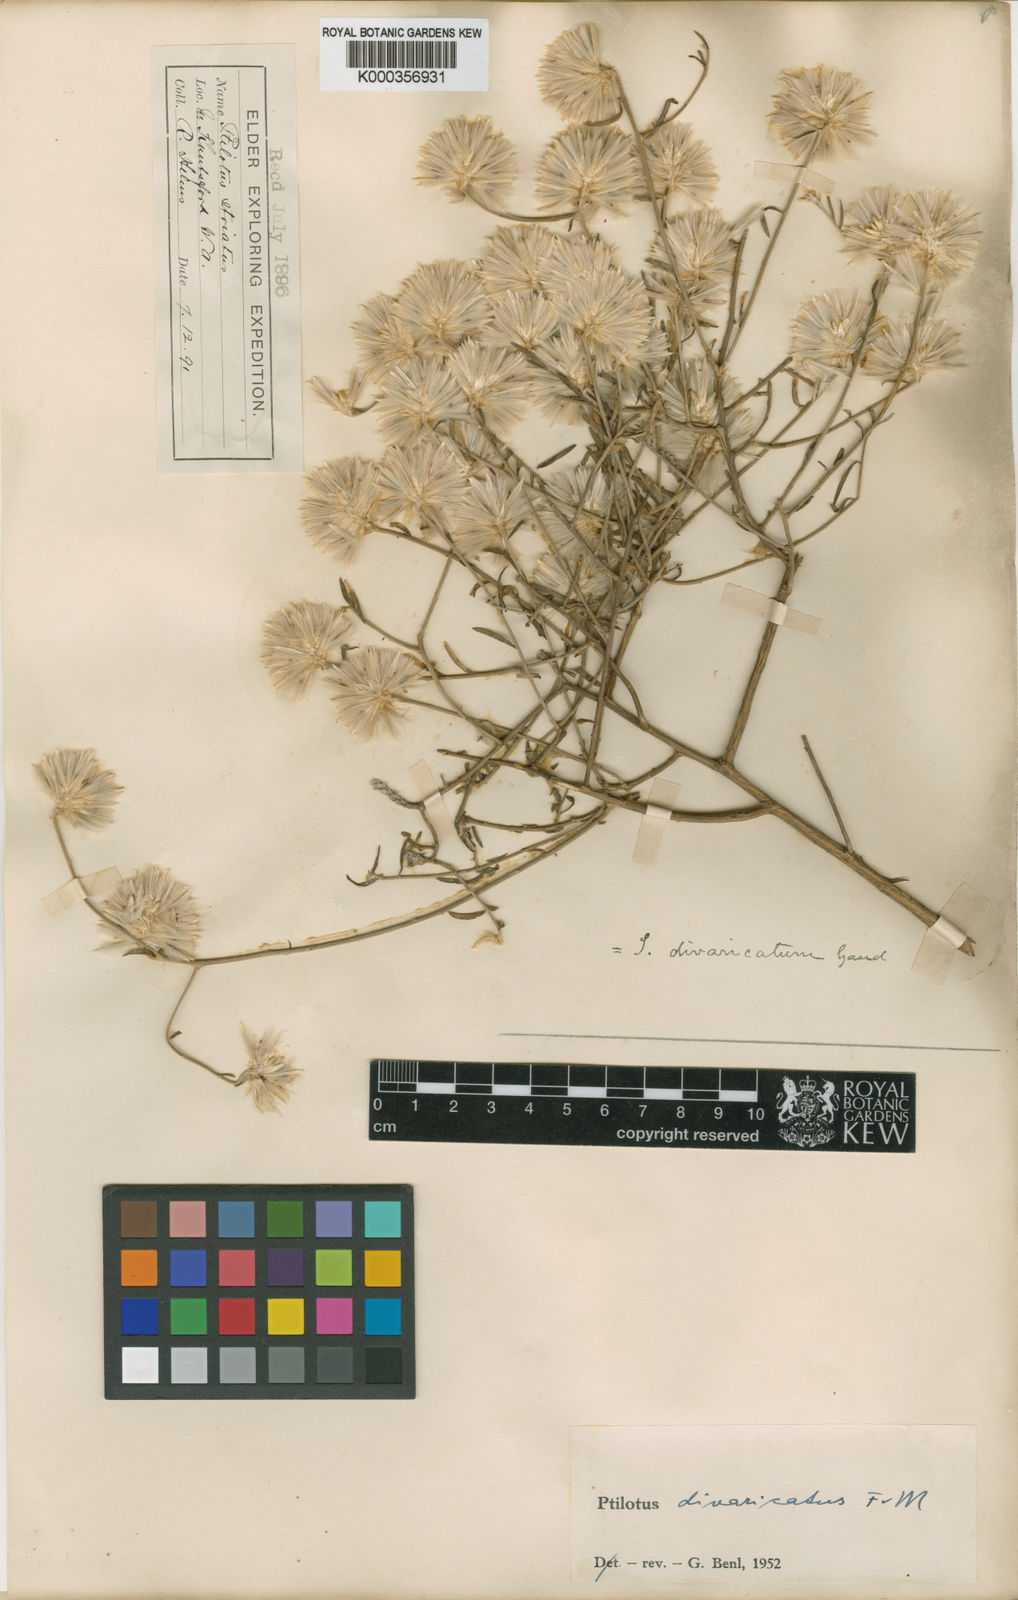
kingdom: Plantae
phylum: Tracheophyta
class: Magnoliopsida
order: Caryophyllales
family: Amaranthaceae
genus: Ptilotus
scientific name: Ptilotus divaricatus
